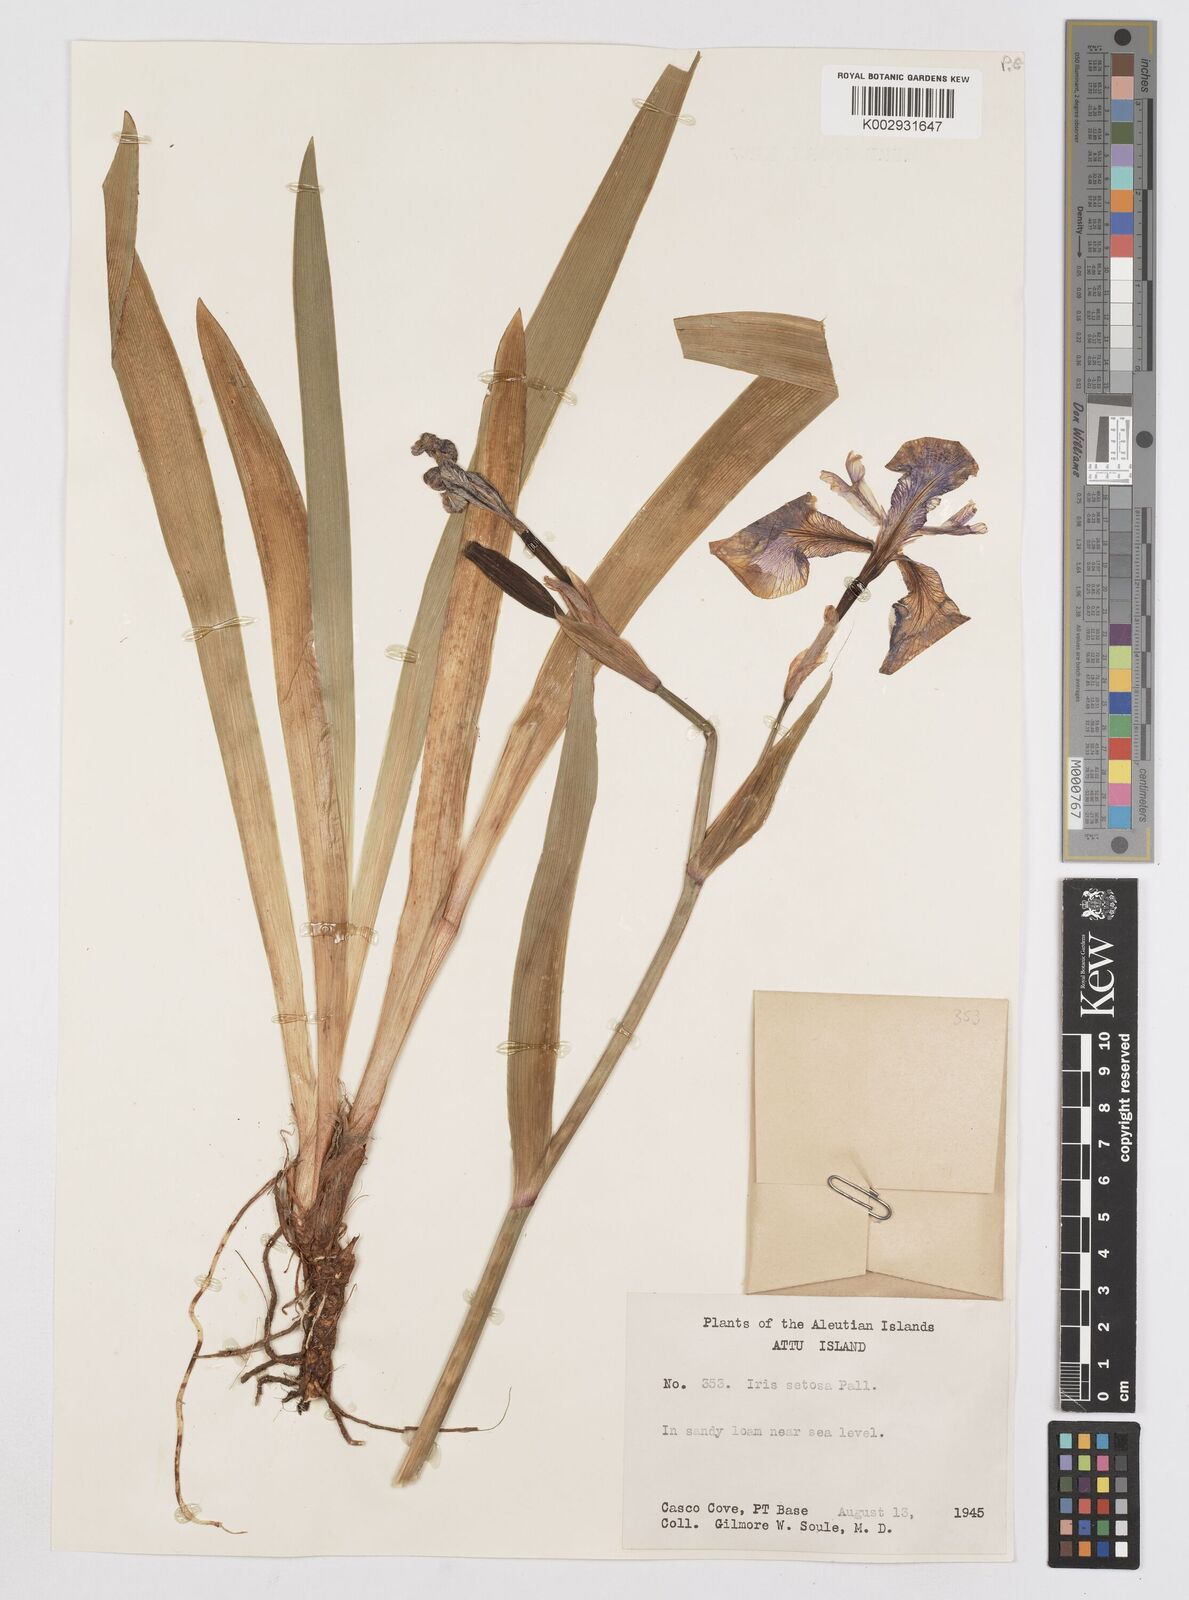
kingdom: Plantae
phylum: Tracheophyta
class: Liliopsida
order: Asparagales
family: Iridaceae
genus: Iris
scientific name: Iris setosa
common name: Arctic blue flag
